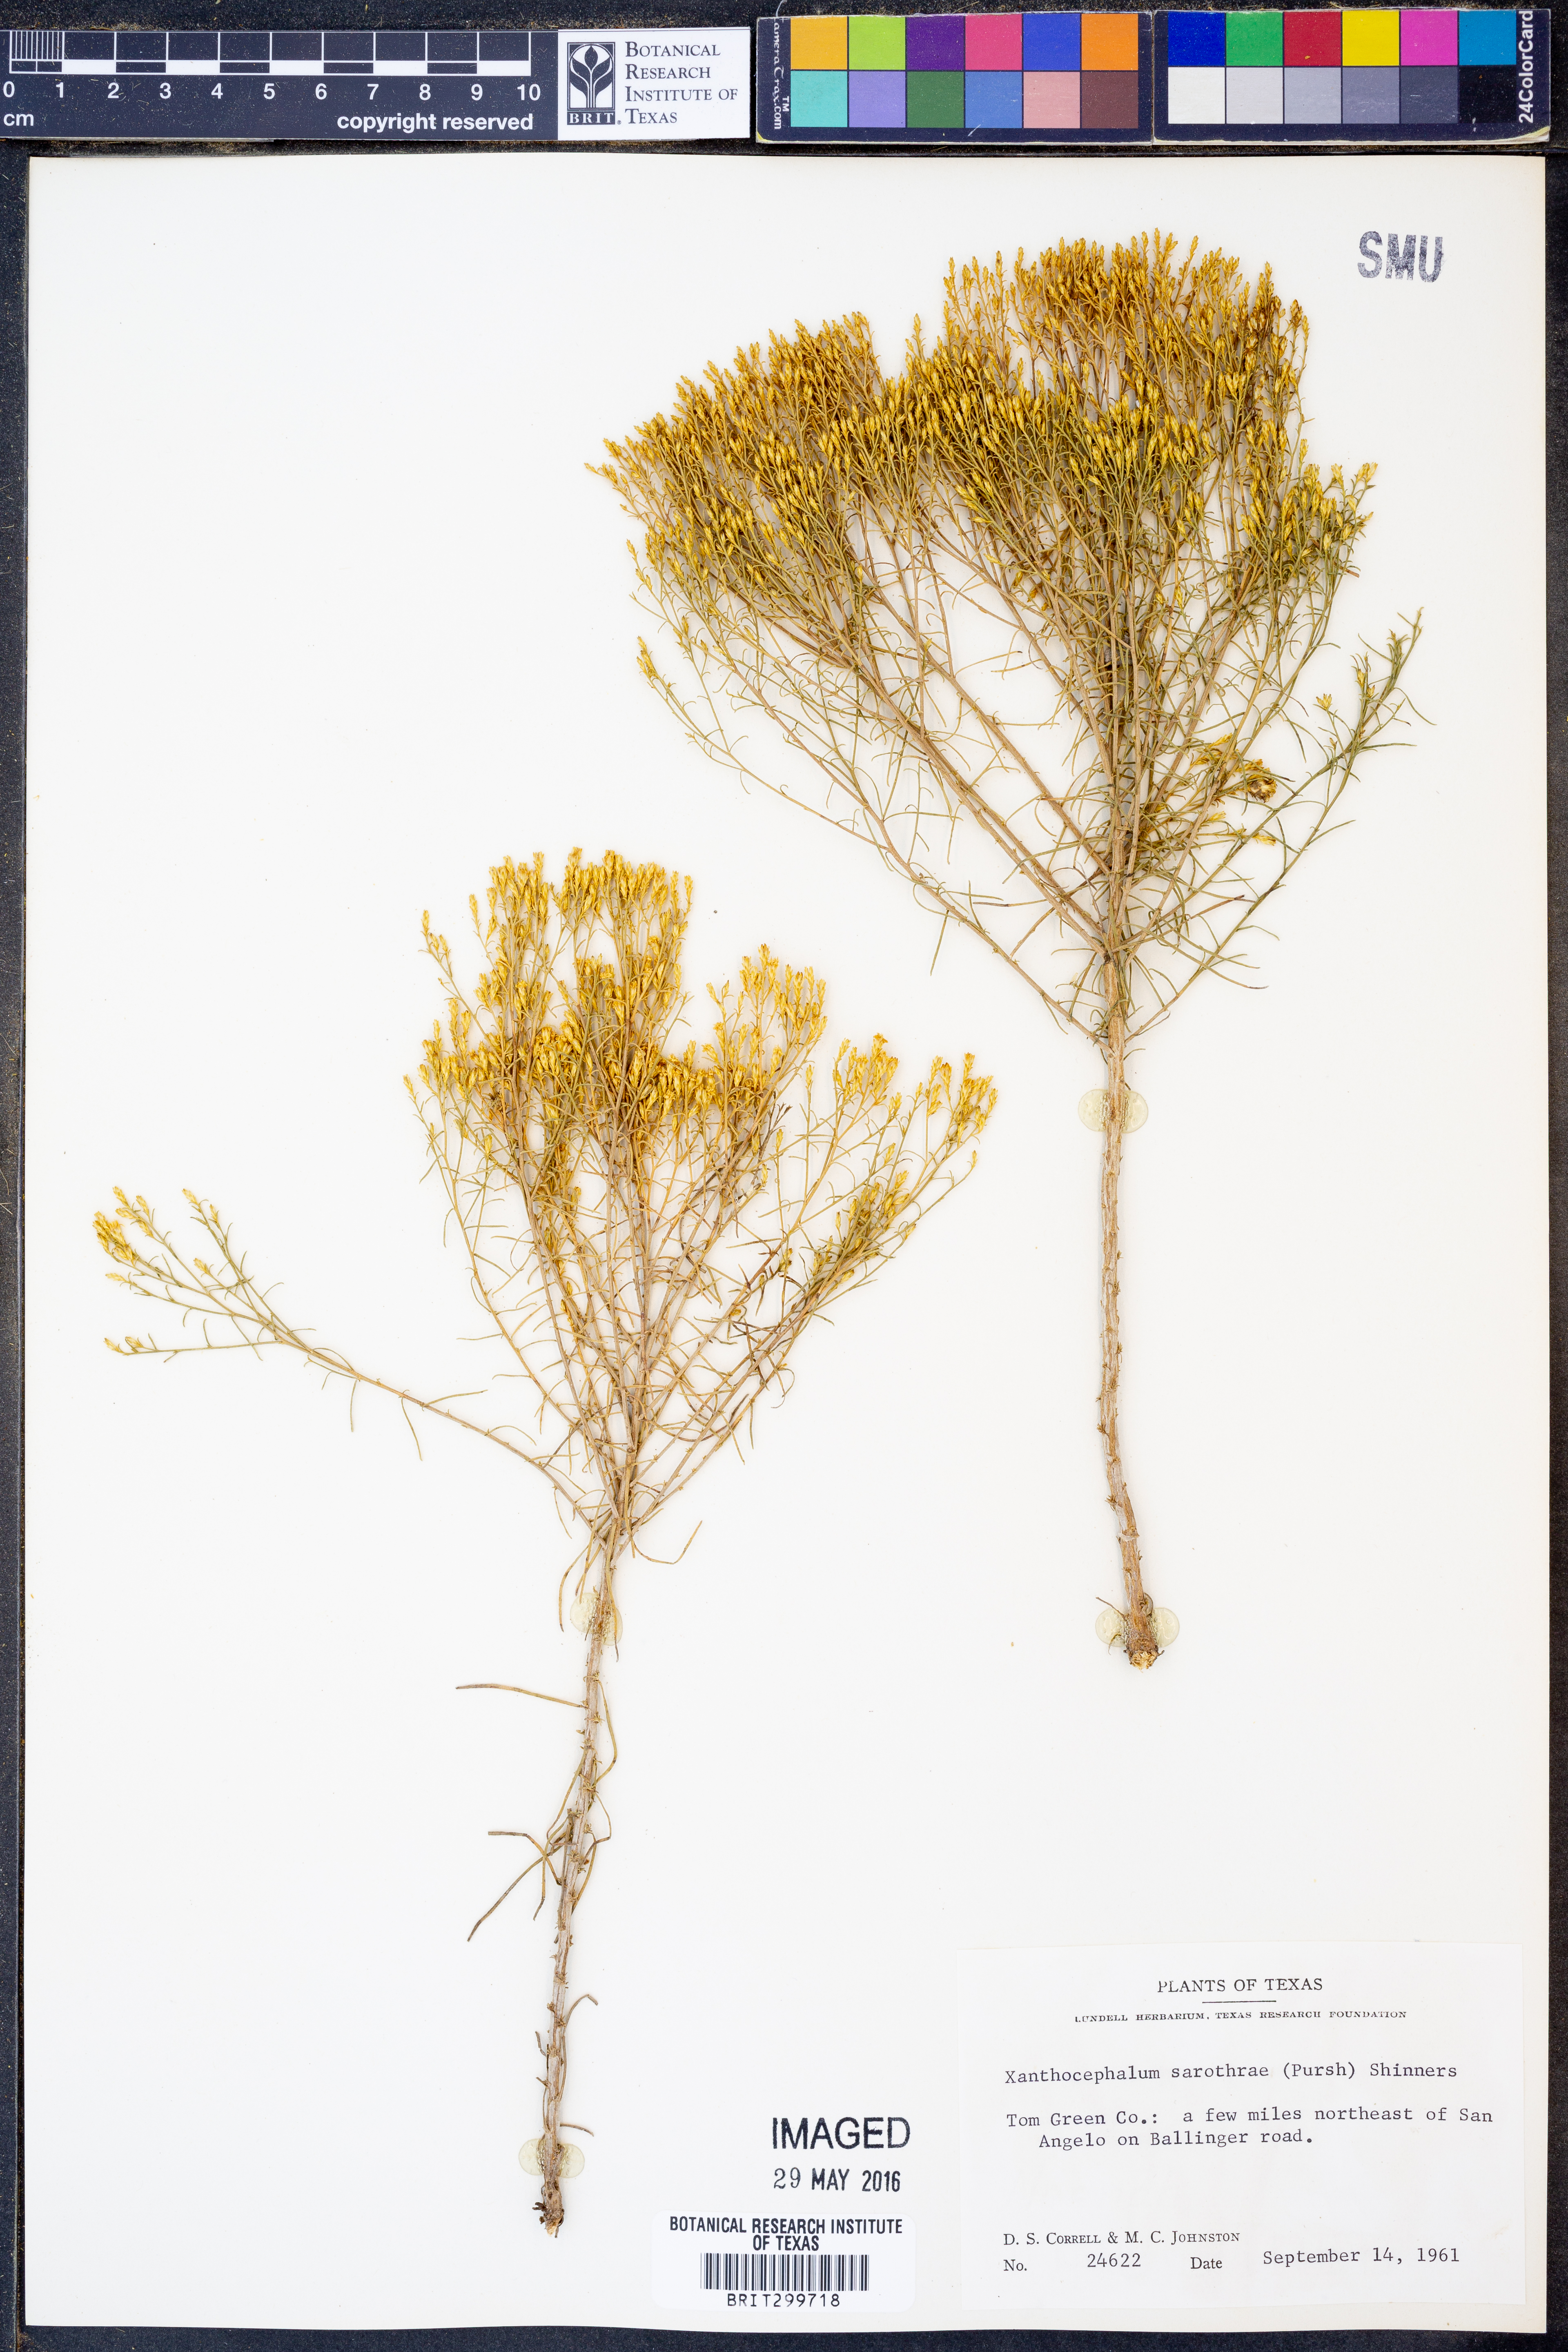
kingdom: Plantae
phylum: Tracheophyta
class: Magnoliopsida
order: Asterales
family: Asteraceae
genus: Gutierrezia
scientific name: Gutierrezia sarothrae
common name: Broom snakeweed
